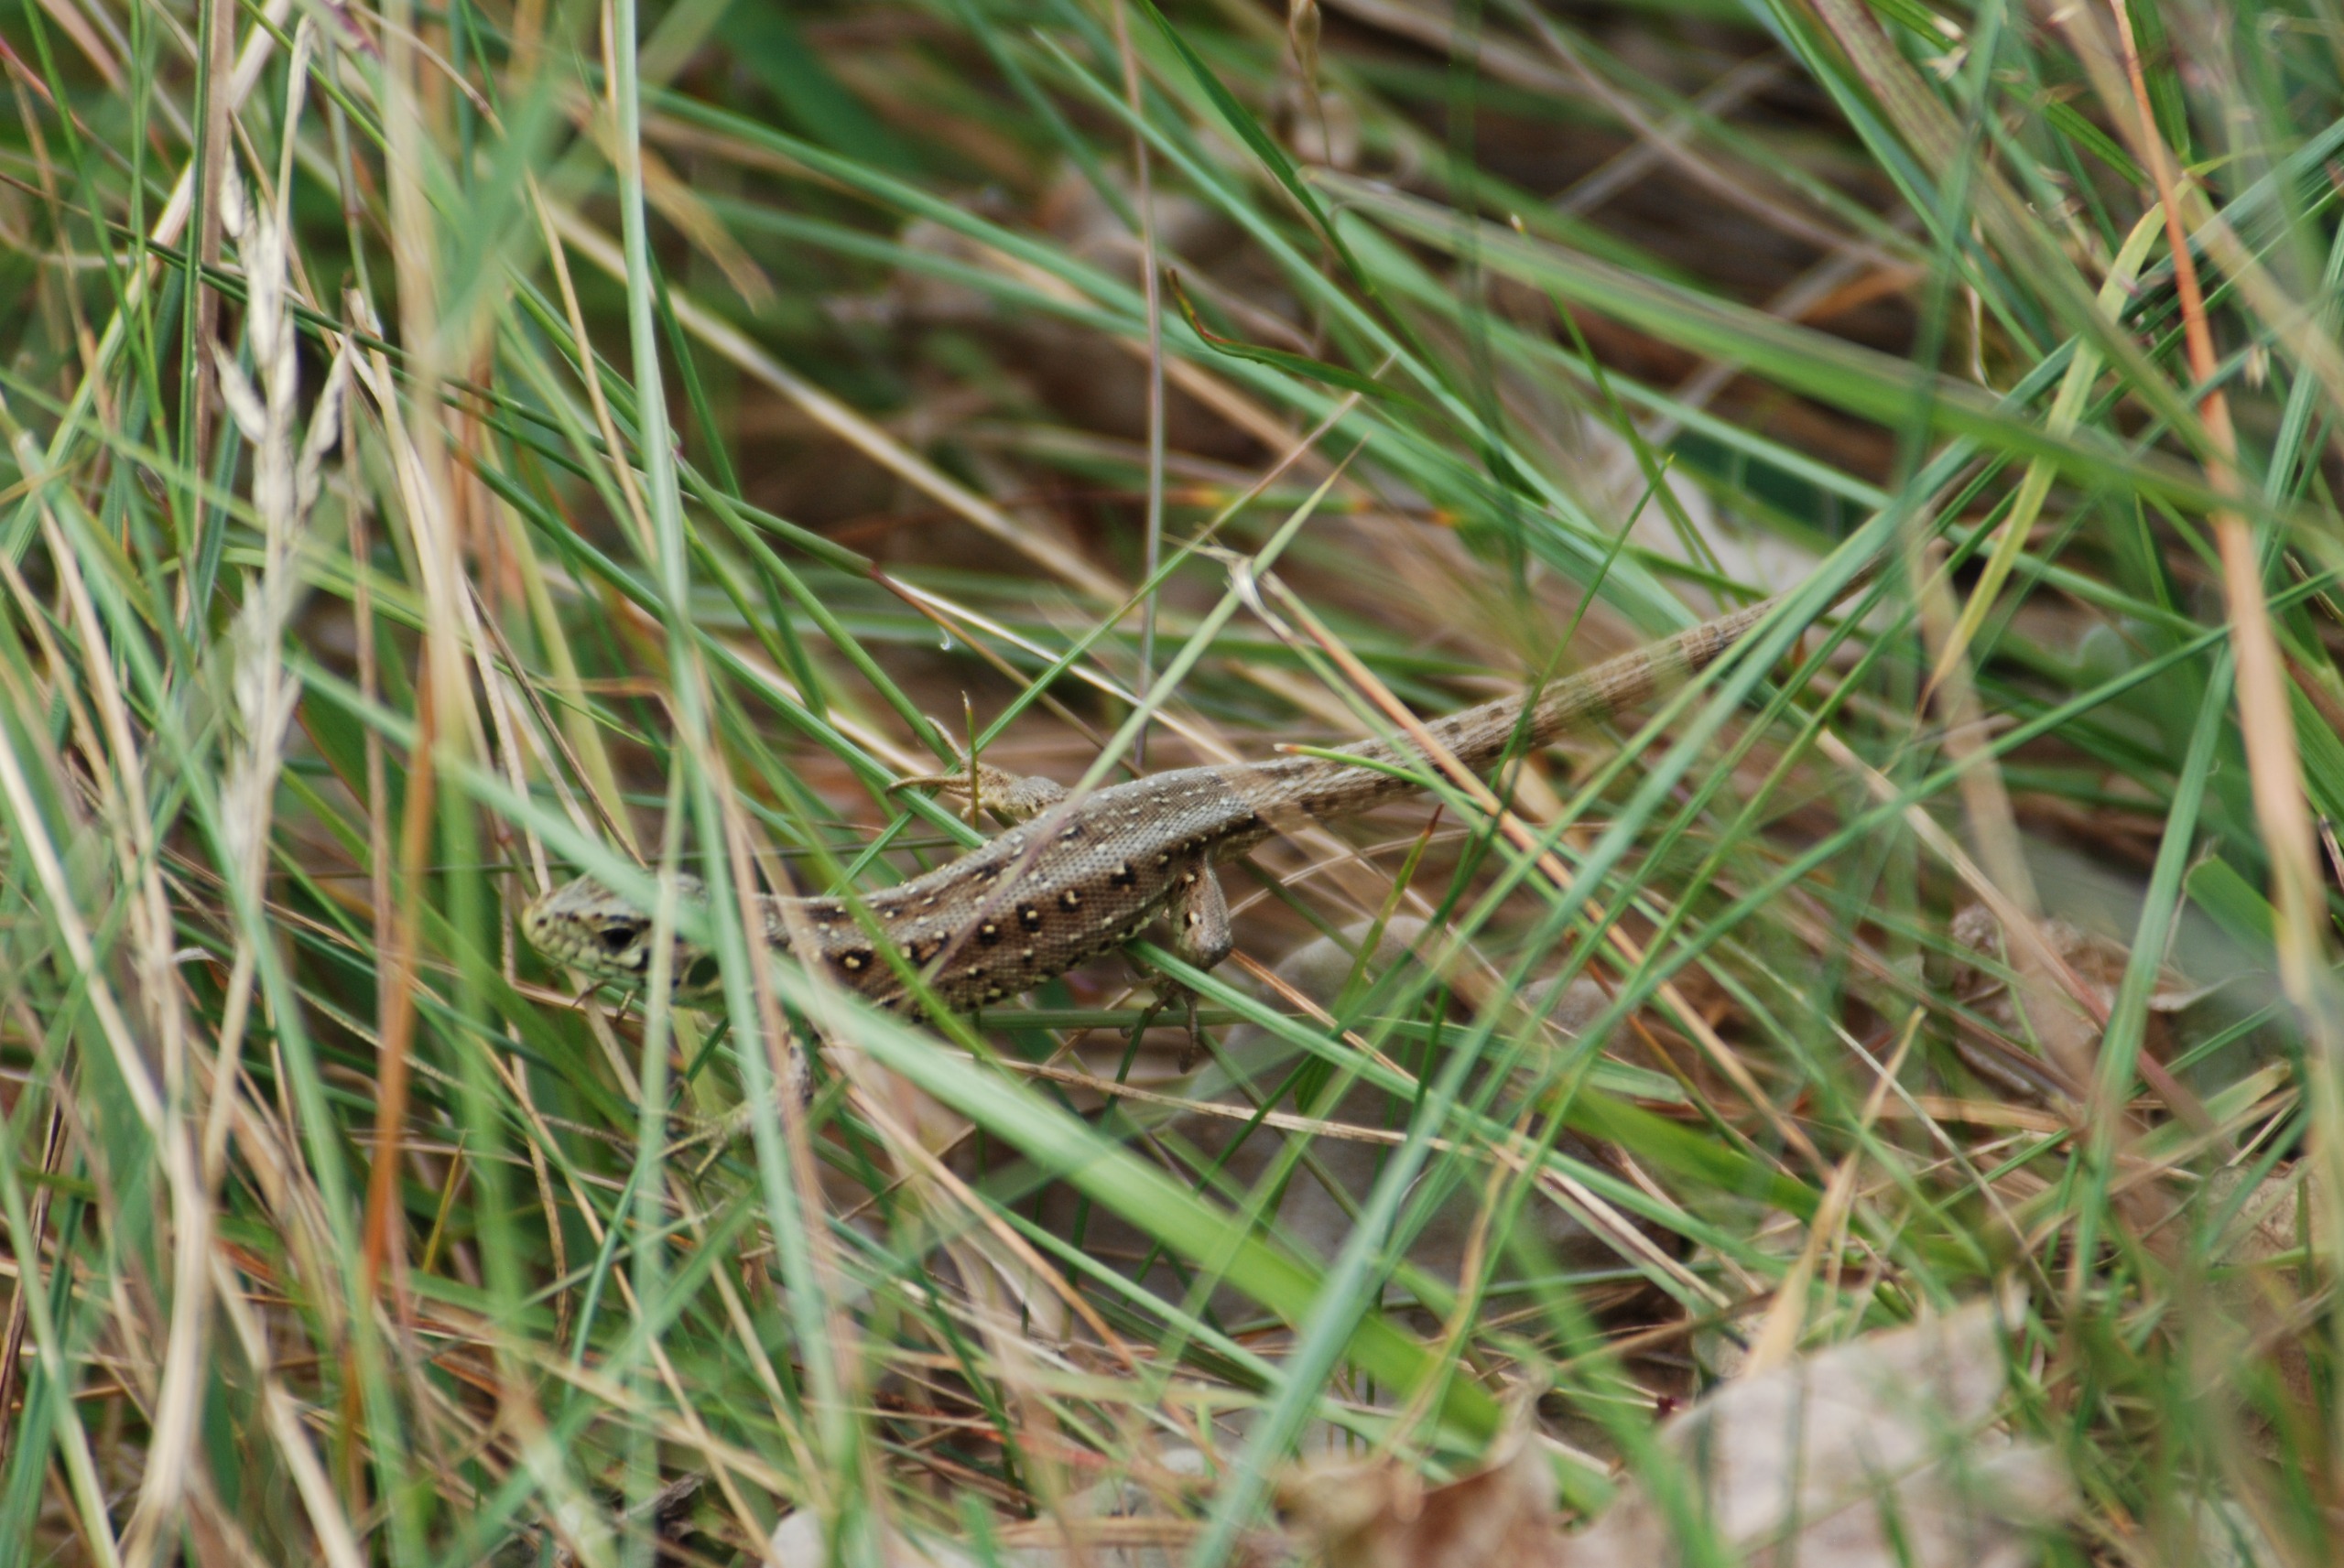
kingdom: Animalia
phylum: Chordata
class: Squamata
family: Lacertidae
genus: Lacerta
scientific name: Lacerta agilis
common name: Markfirben
